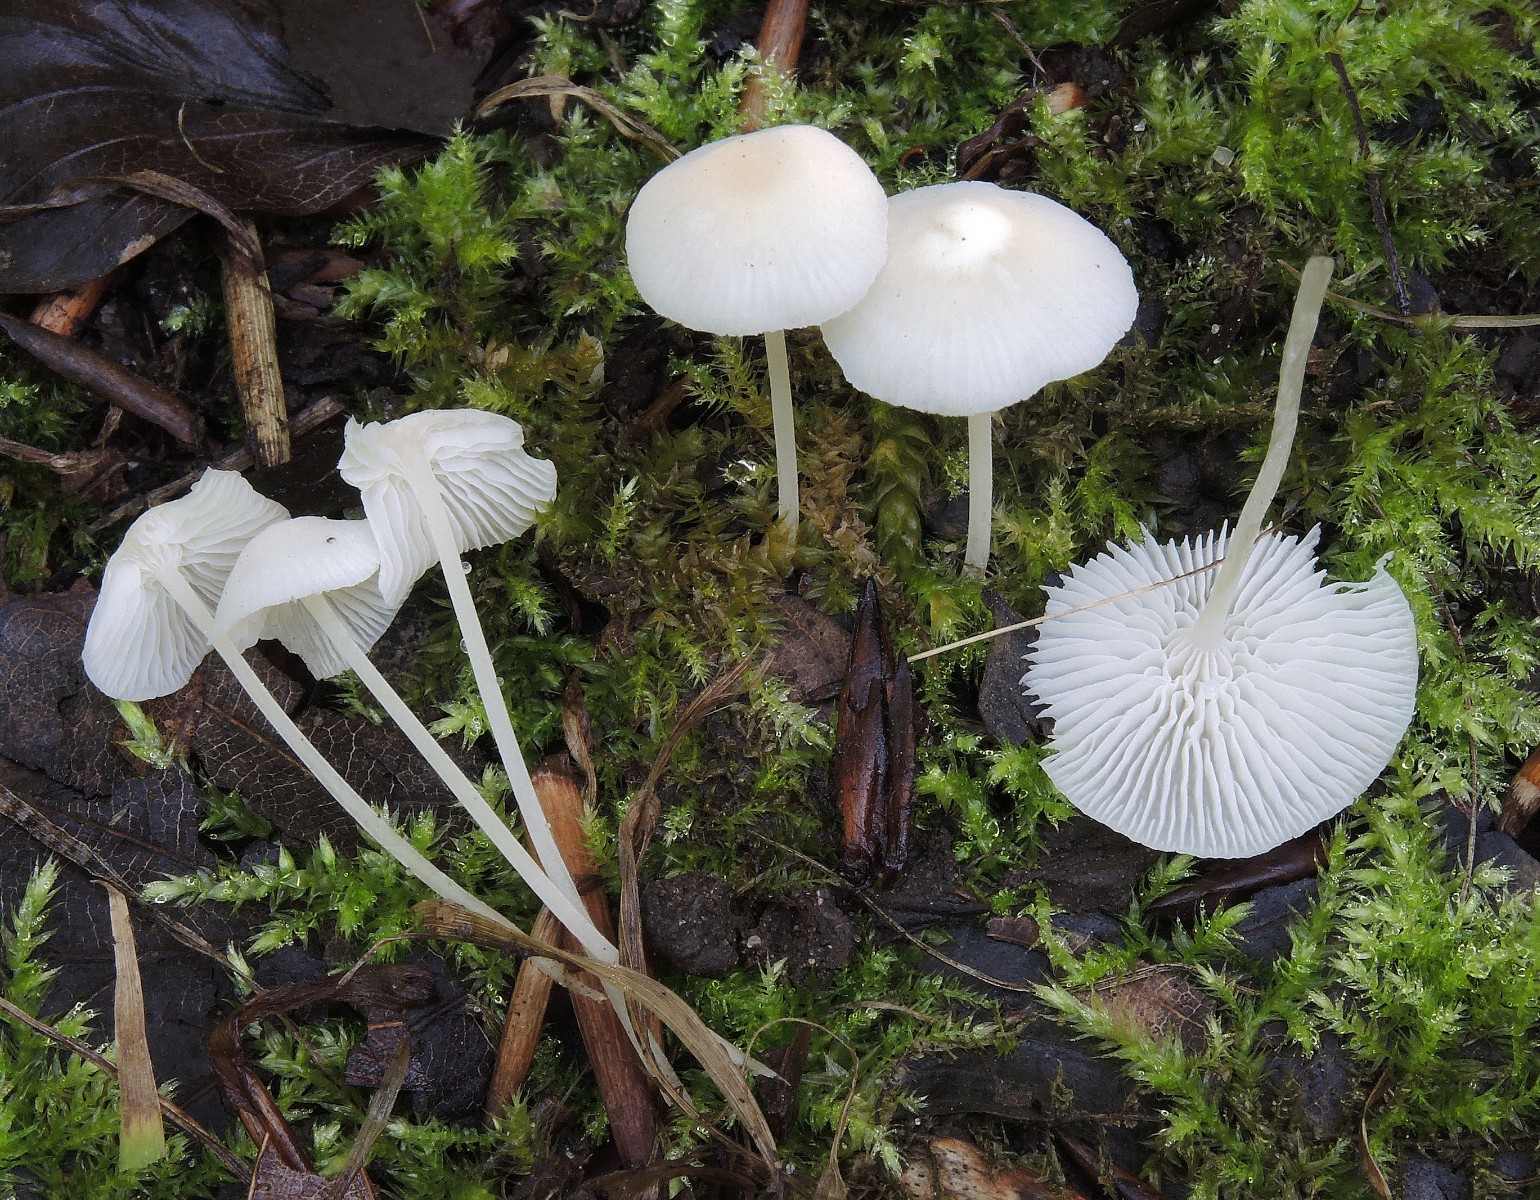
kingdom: Fungi
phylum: Basidiomycota
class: Agaricomycetes
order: Agaricales
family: Mycenaceae
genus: Hemimycena
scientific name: Hemimycena cucullata
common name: tætbladet huesvamp
